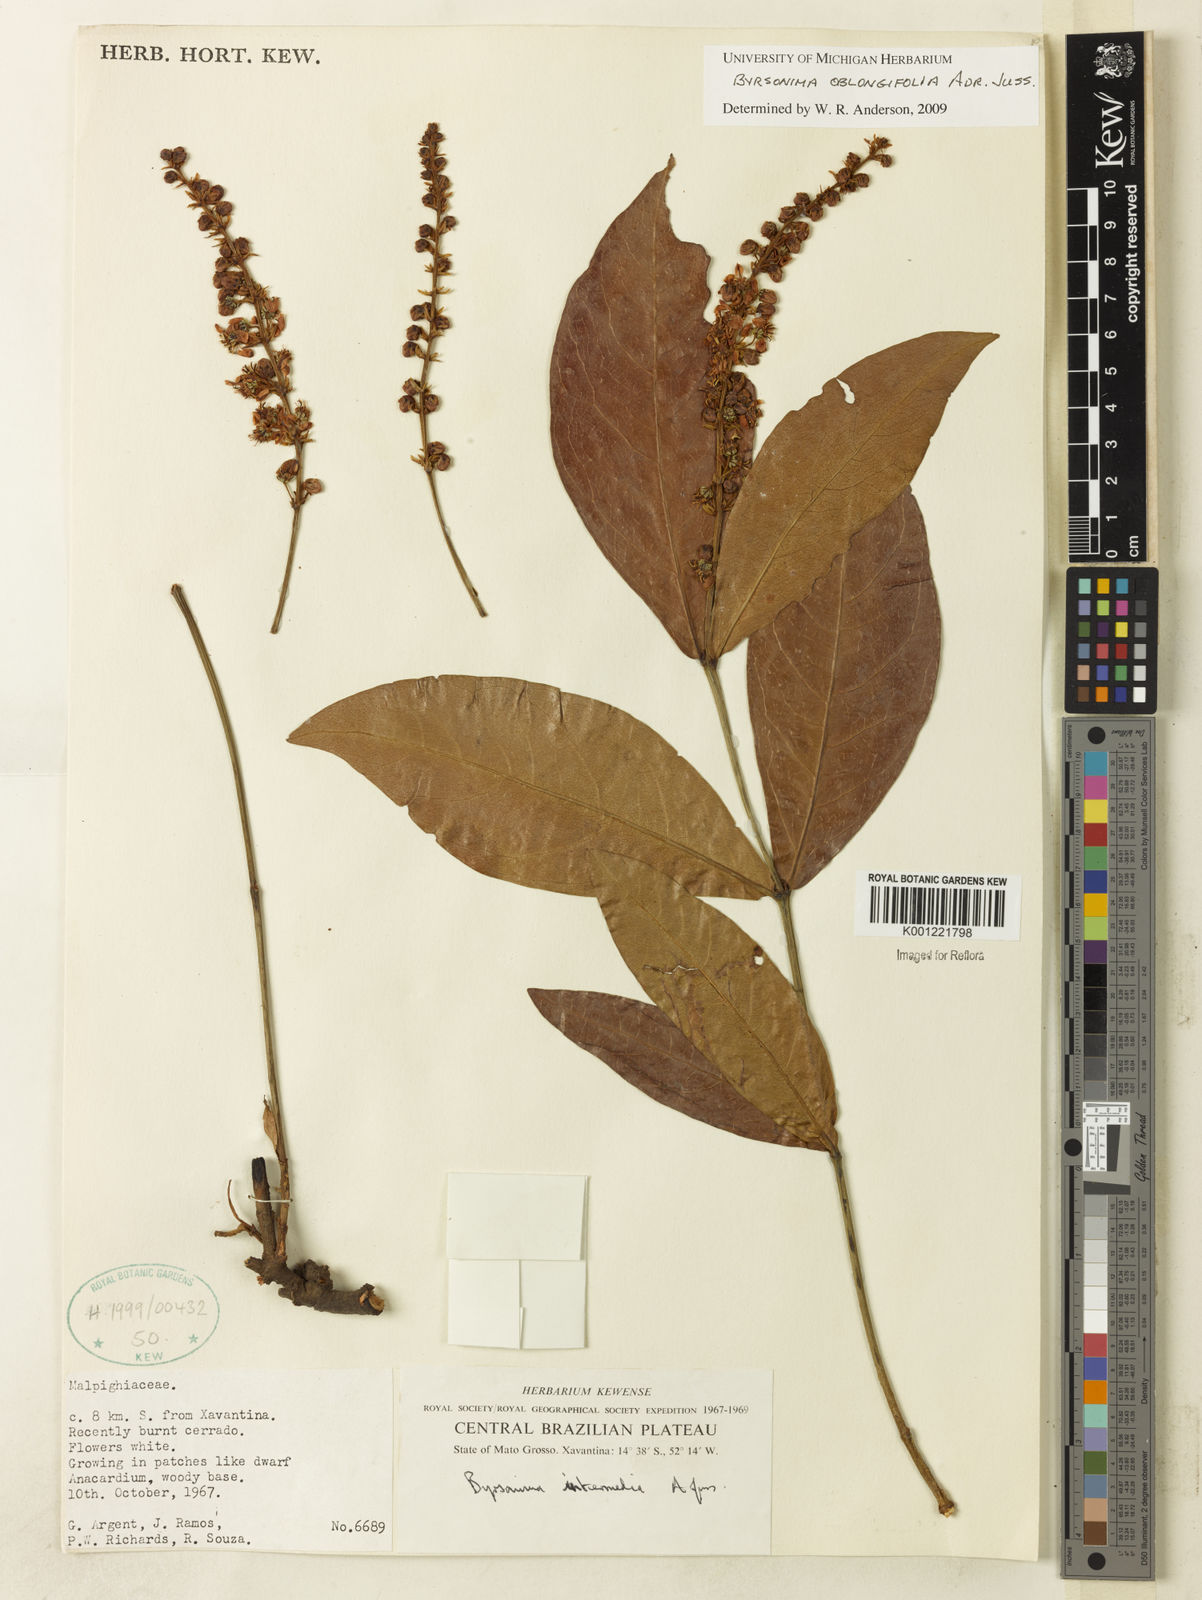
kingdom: Plantae
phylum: Tracheophyta
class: Magnoliopsida
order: Malpighiales
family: Malpighiaceae
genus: Byrsonima
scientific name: Byrsonima oblongifolia
